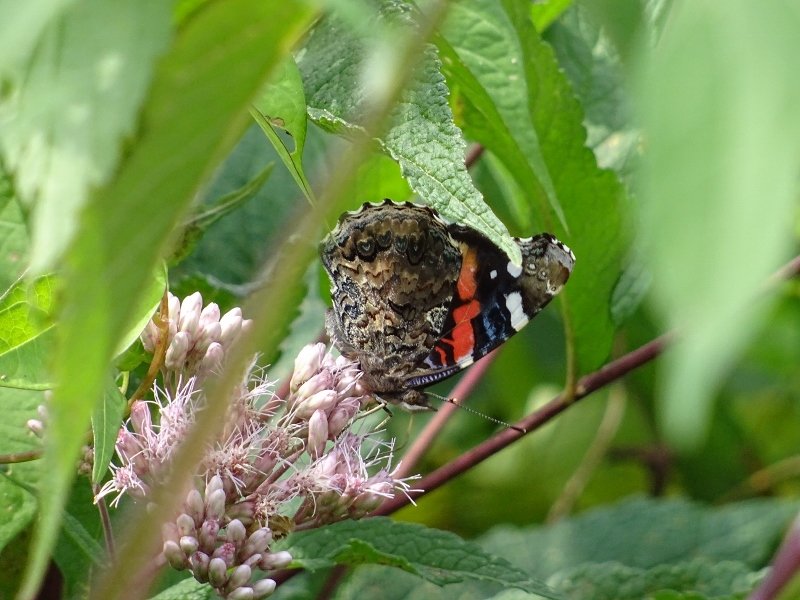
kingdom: Animalia
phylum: Arthropoda
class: Insecta
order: Lepidoptera
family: Nymphalidae
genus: Vanessa
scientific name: Vanessa atalanta
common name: Red Admiral
